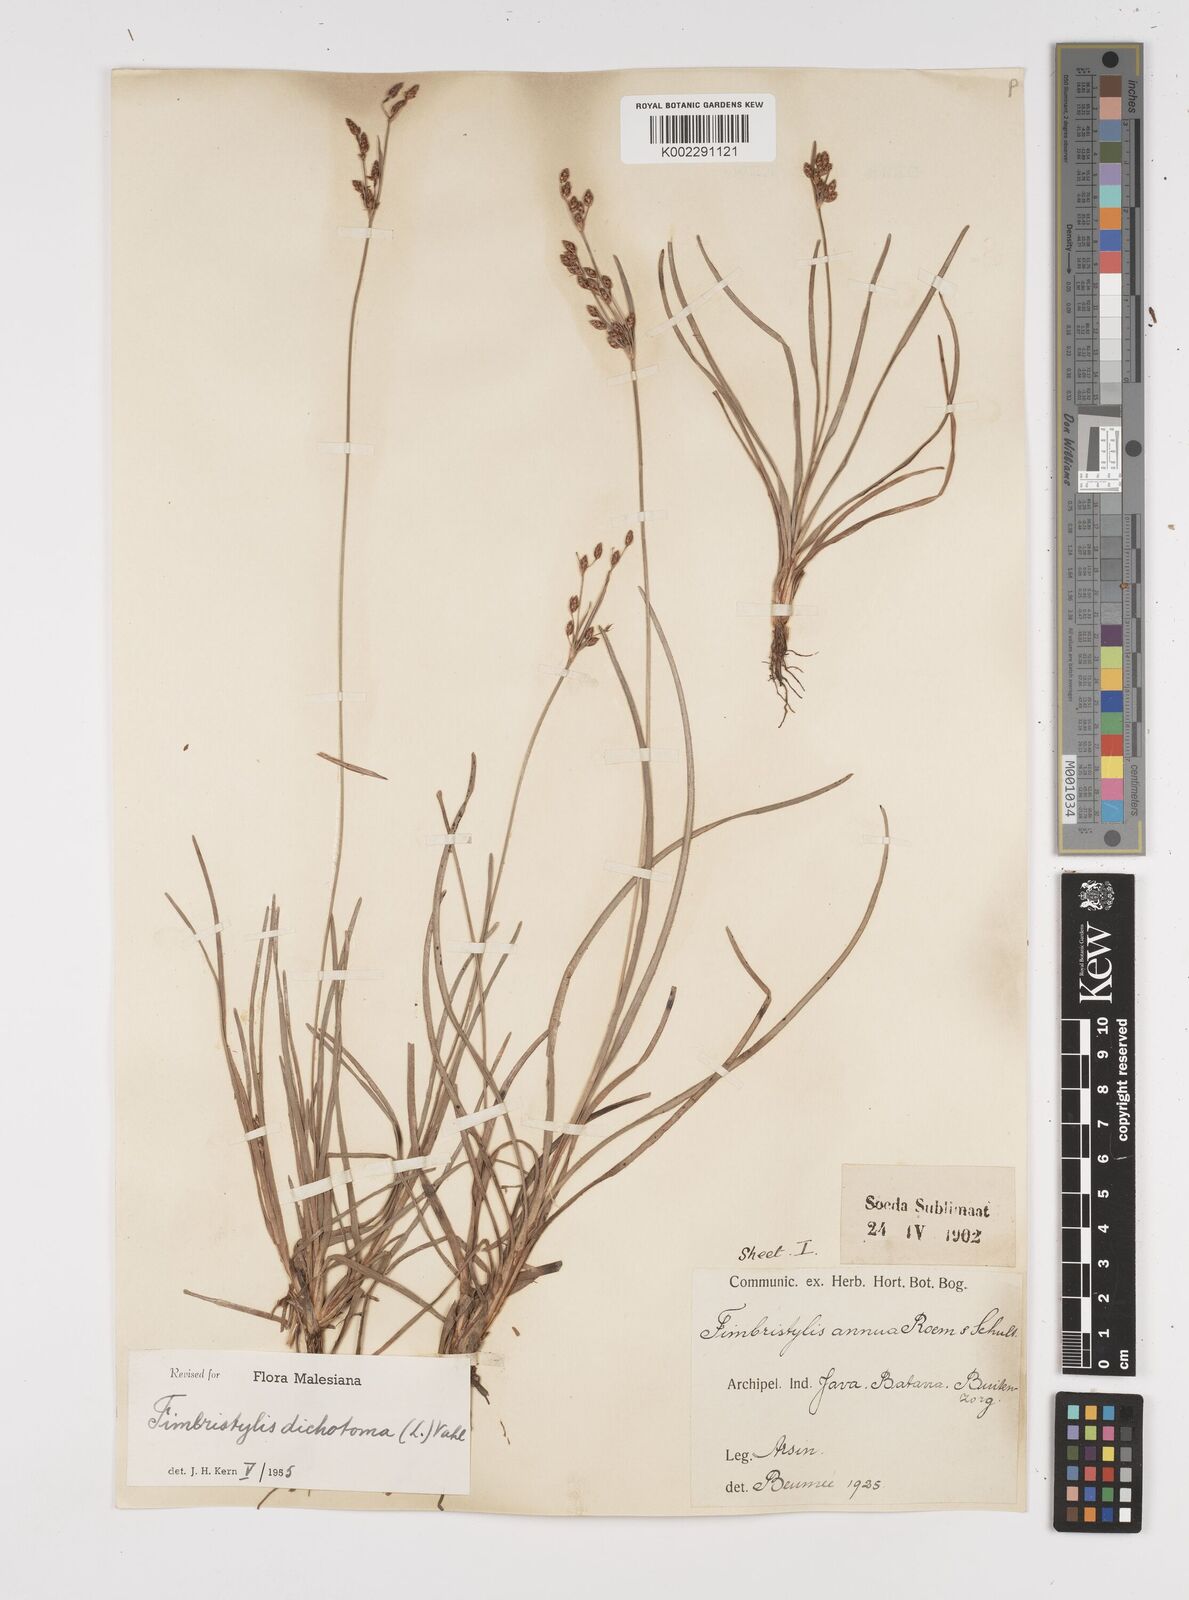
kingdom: Plantae
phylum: Tracheophyta
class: Liliopsida
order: Poales
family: Cyperaceae
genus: Fimbristylis
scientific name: Fimbristylis dichotoma
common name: Forked fimbry
